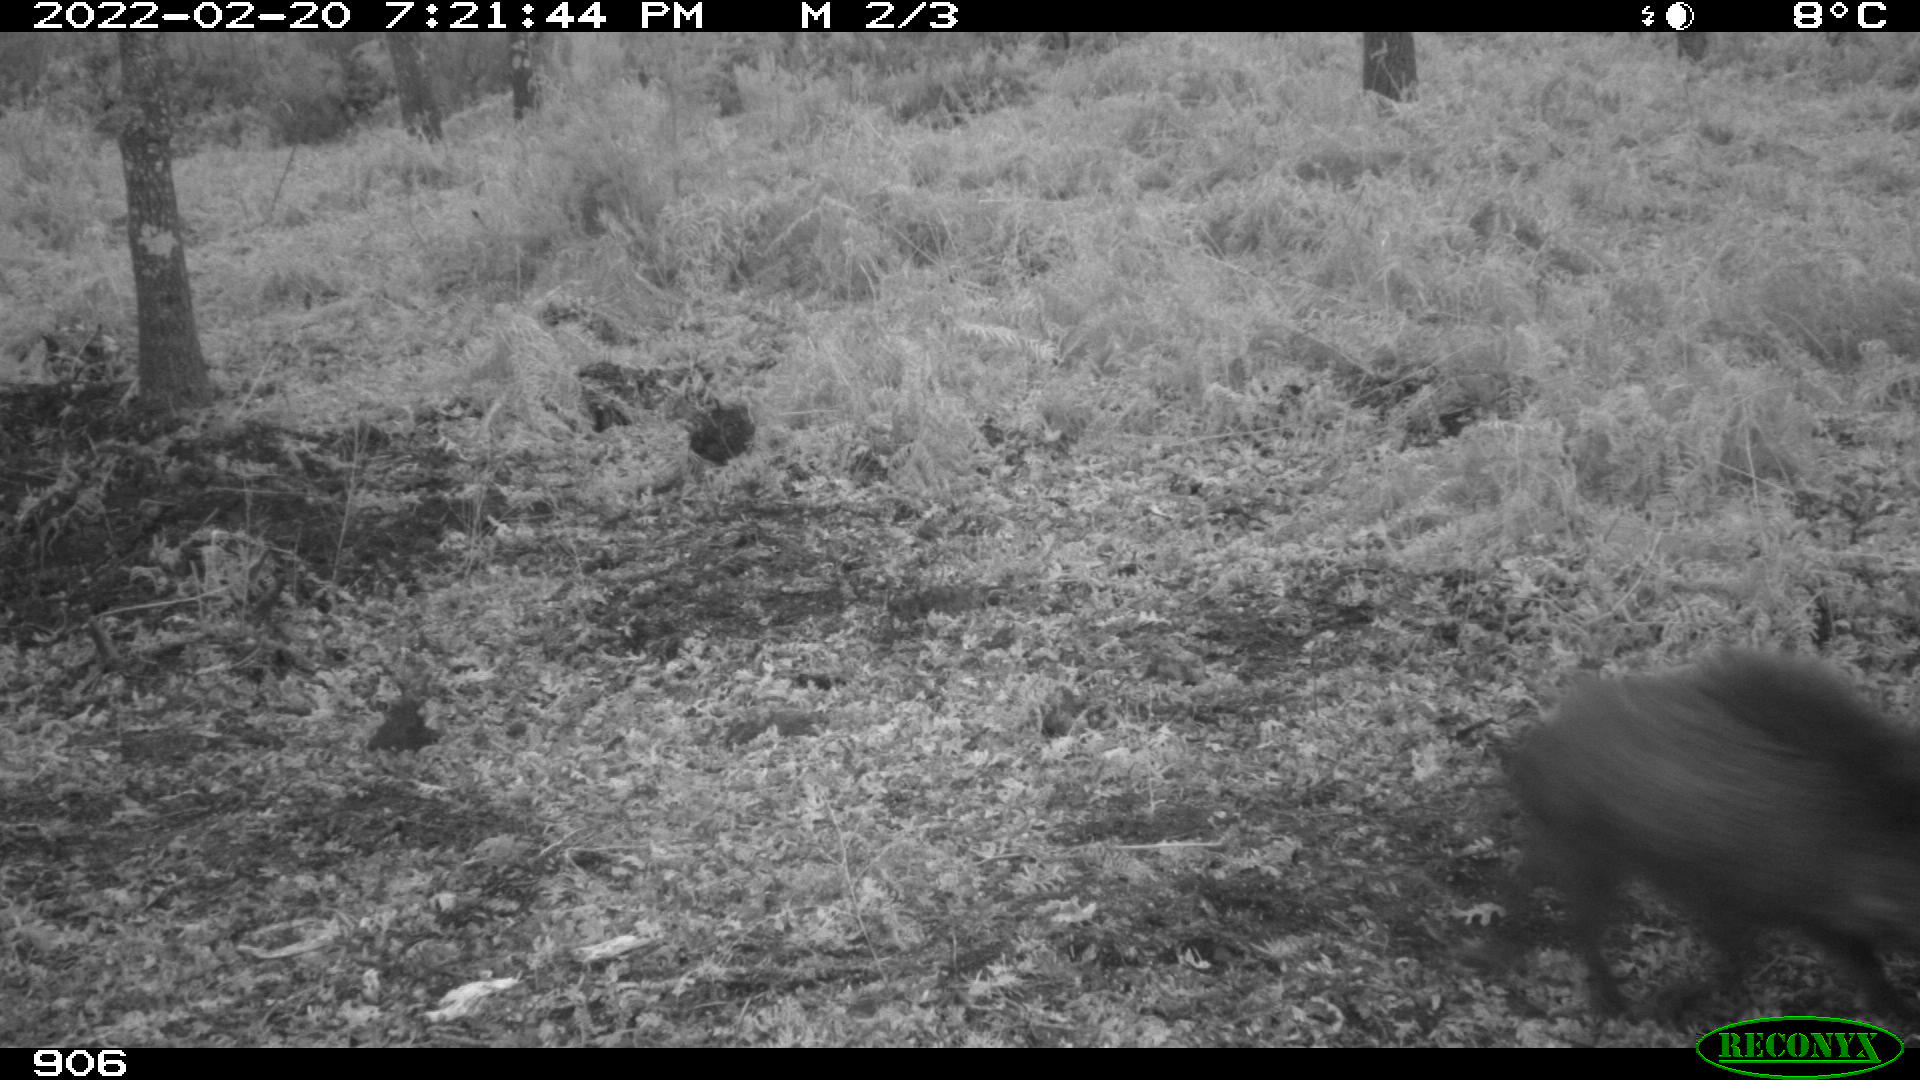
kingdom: Animalia
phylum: Chordata
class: Mammalia
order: Artiodactyla
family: Suidae
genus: Sus
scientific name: Sus scrofa
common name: Wild boar
